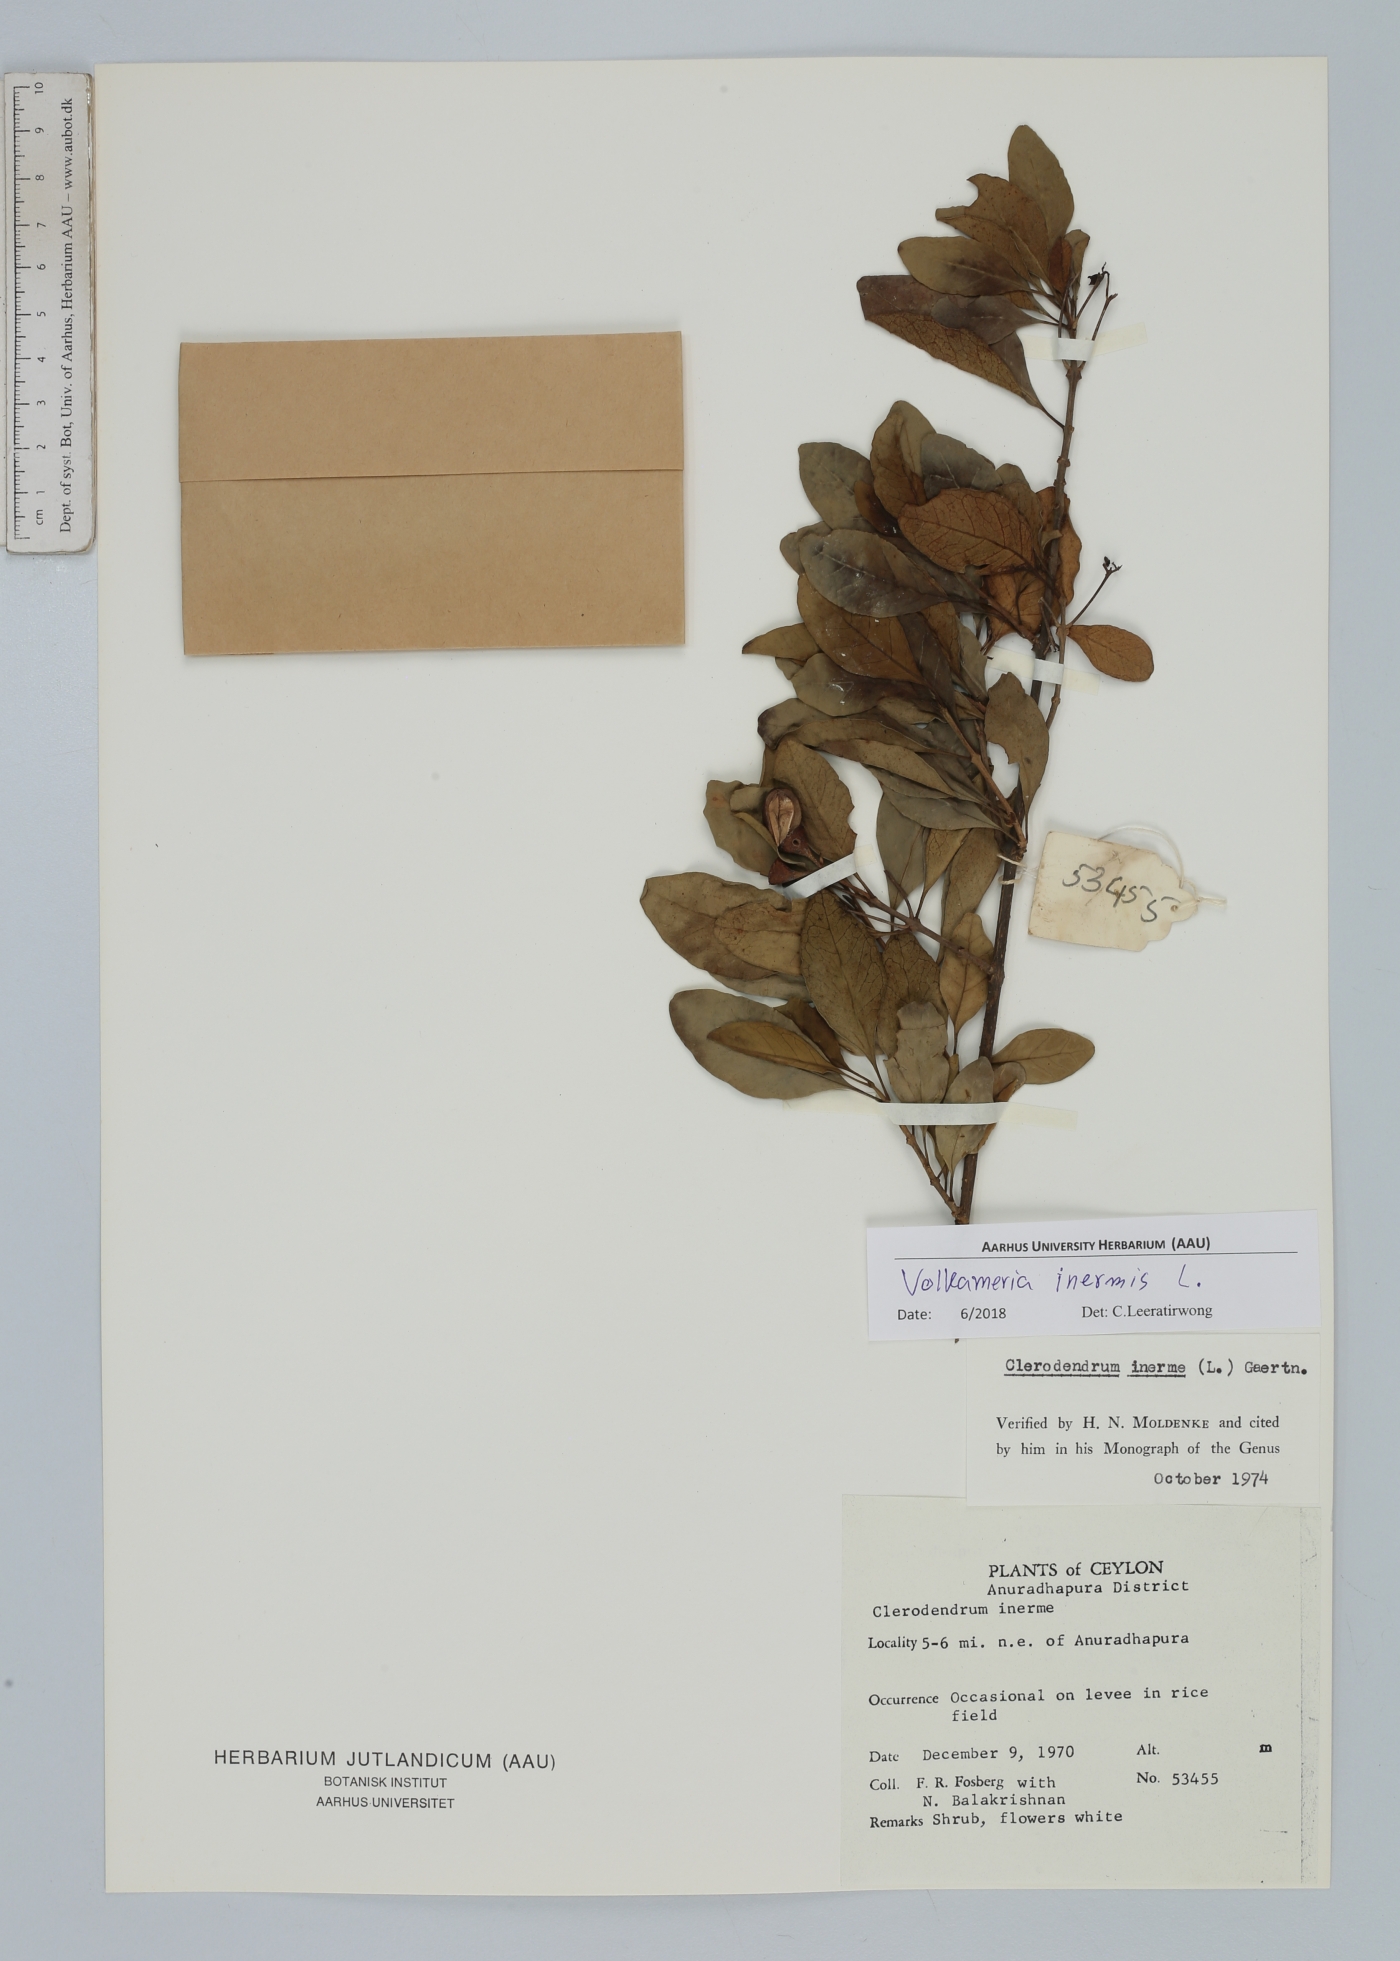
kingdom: Plantae
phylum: Tracheophyta
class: Magnoliopsida
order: Lamiales
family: Lamiaceae
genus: Volkameria
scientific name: Volkameria inermis
